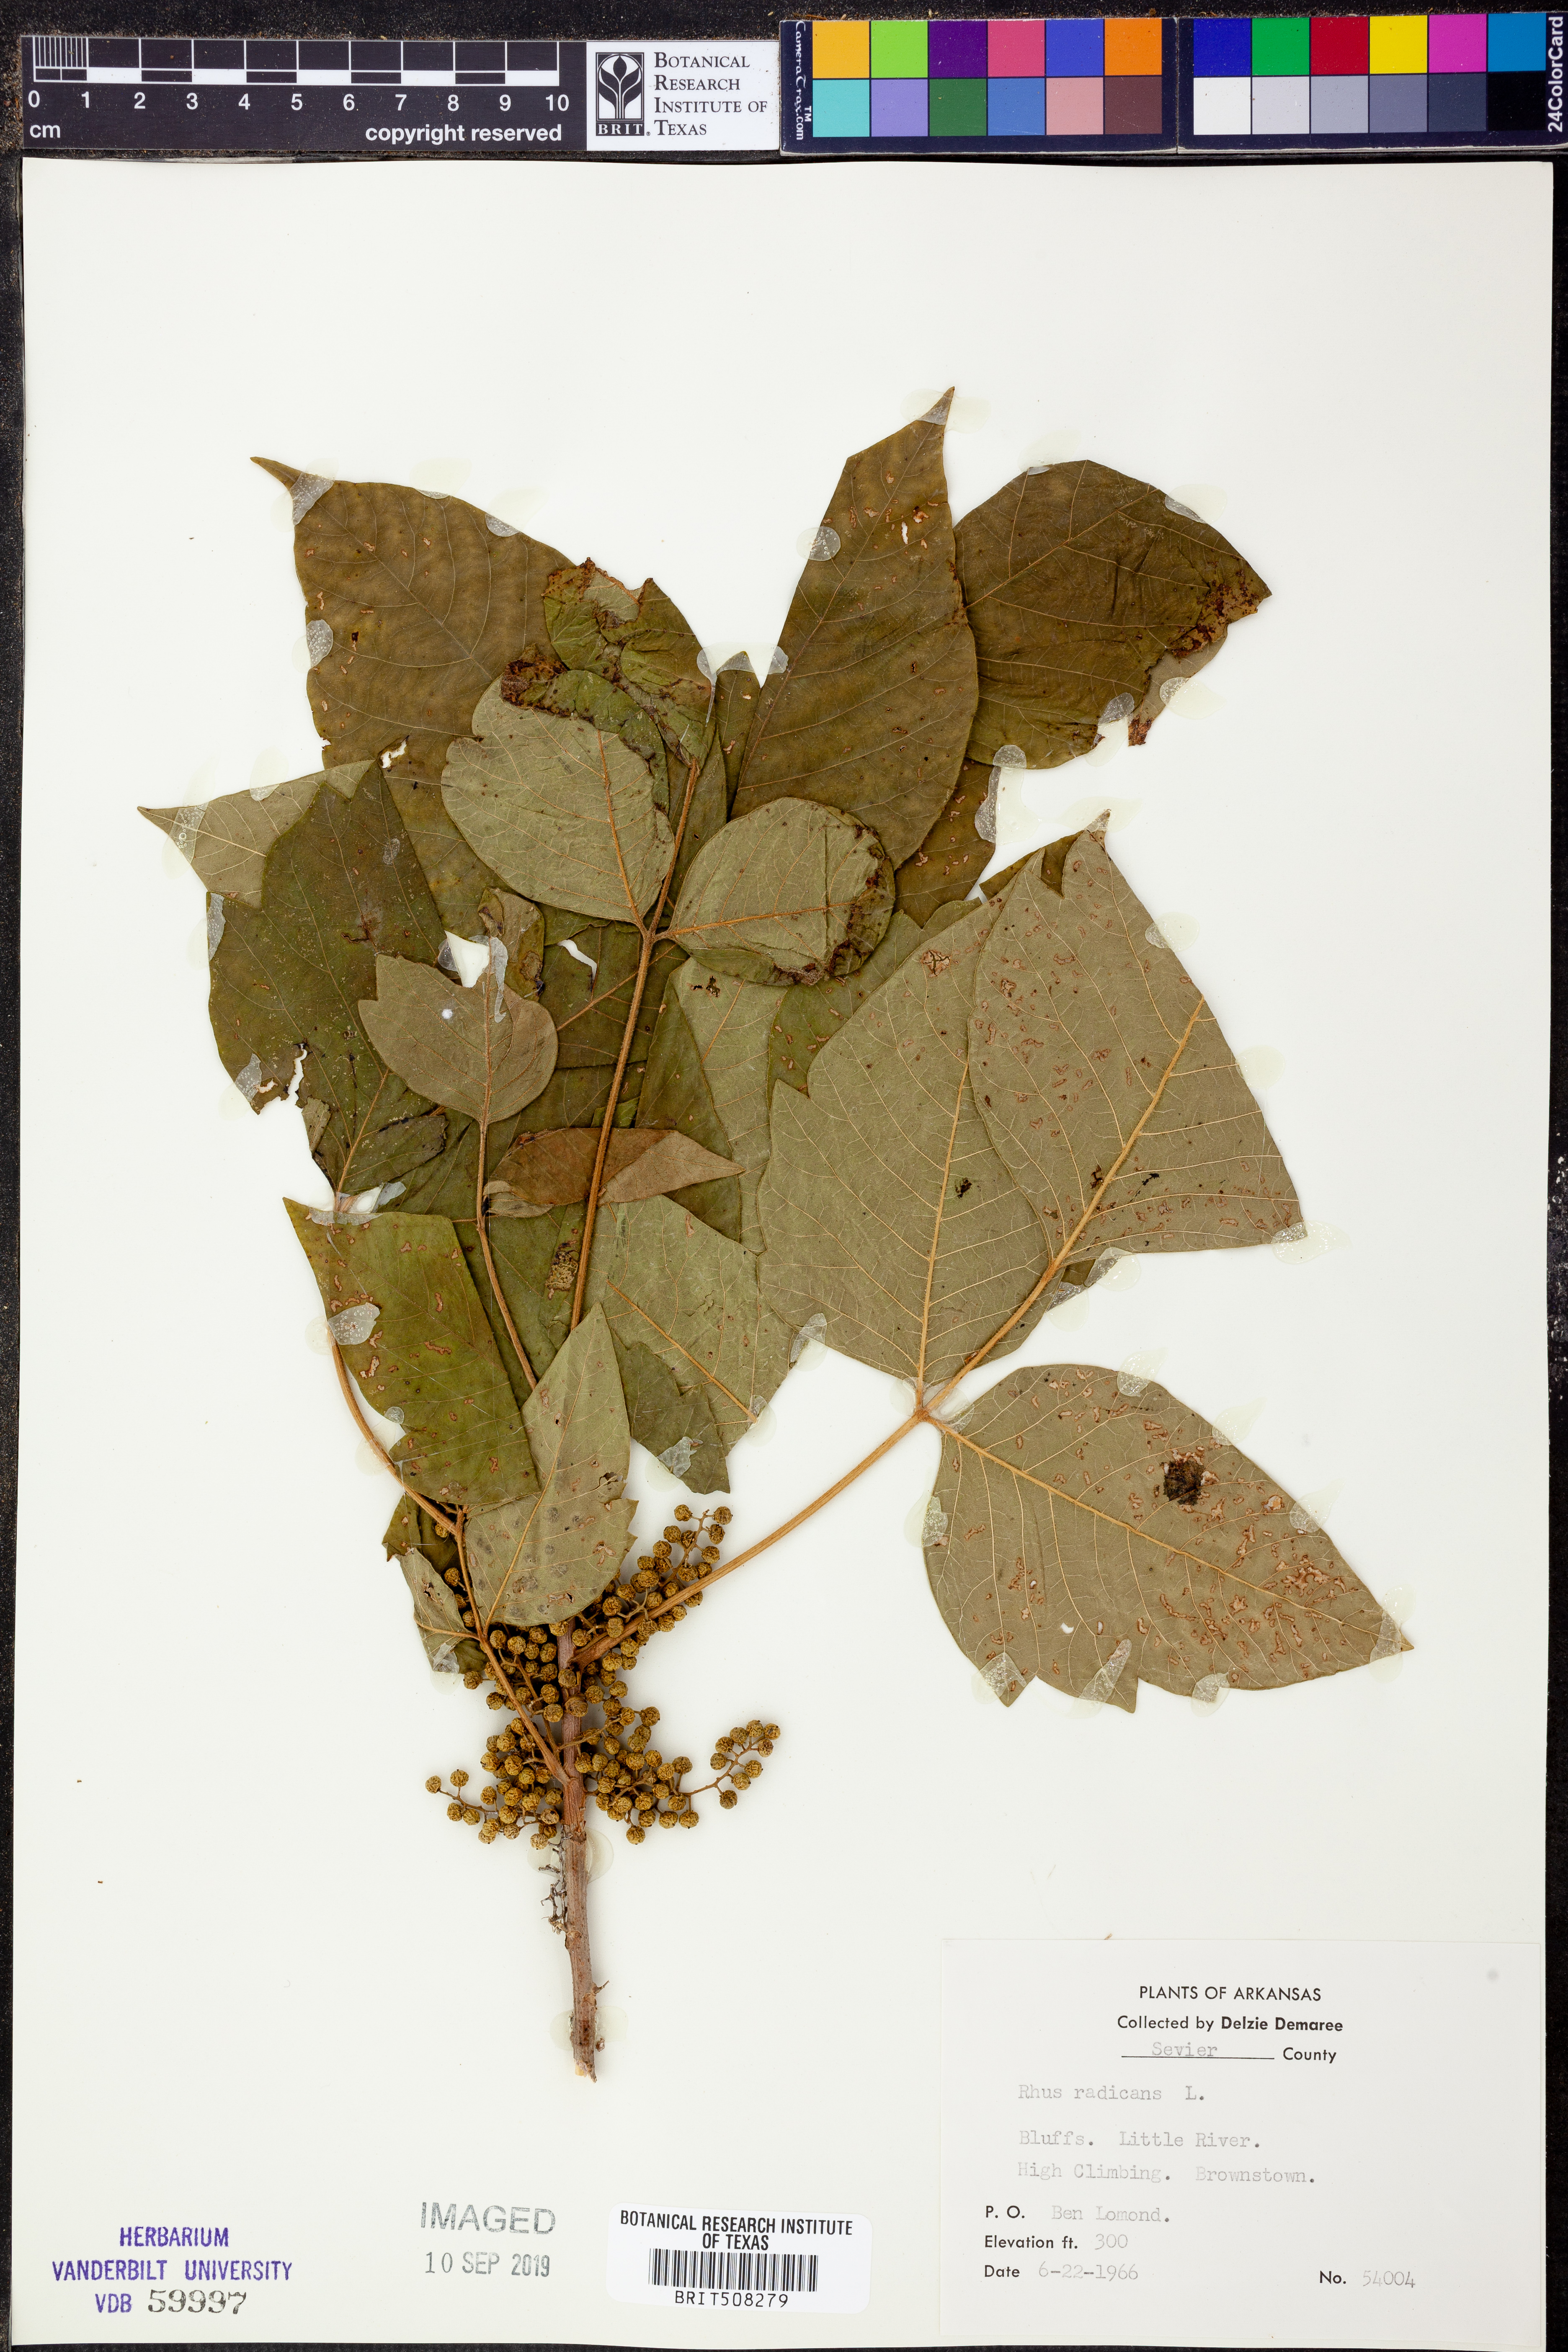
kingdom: Plantae
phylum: Tracheophyta
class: Magnoliopsida
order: Sapindales
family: Anacardiaceae
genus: Toxicodendron
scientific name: Toxicodendron radicans
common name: Poison ivy
